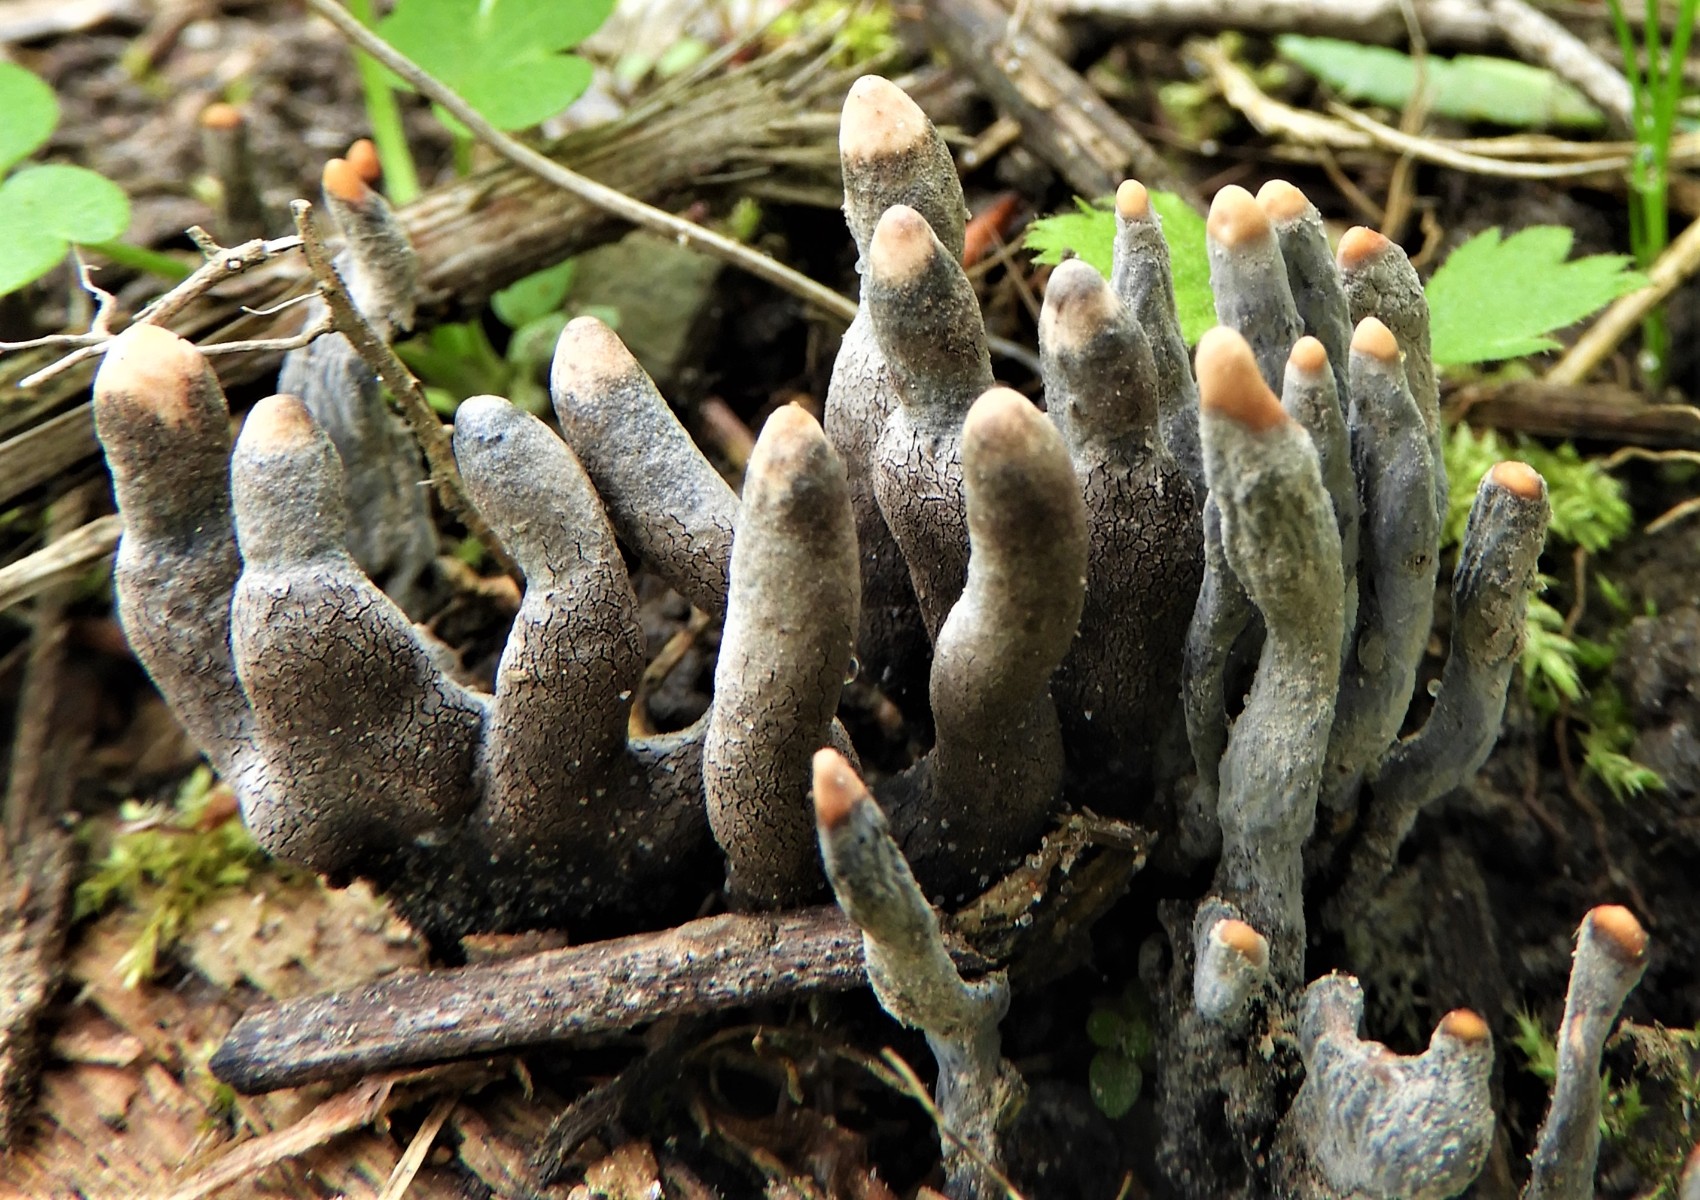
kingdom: Fungi
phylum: Ascomycota
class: Sordariomycetes
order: Xylariales
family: Xylariaceae
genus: Xylaria
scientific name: Xylaria polymorpha
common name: kølle-stødsvamp
